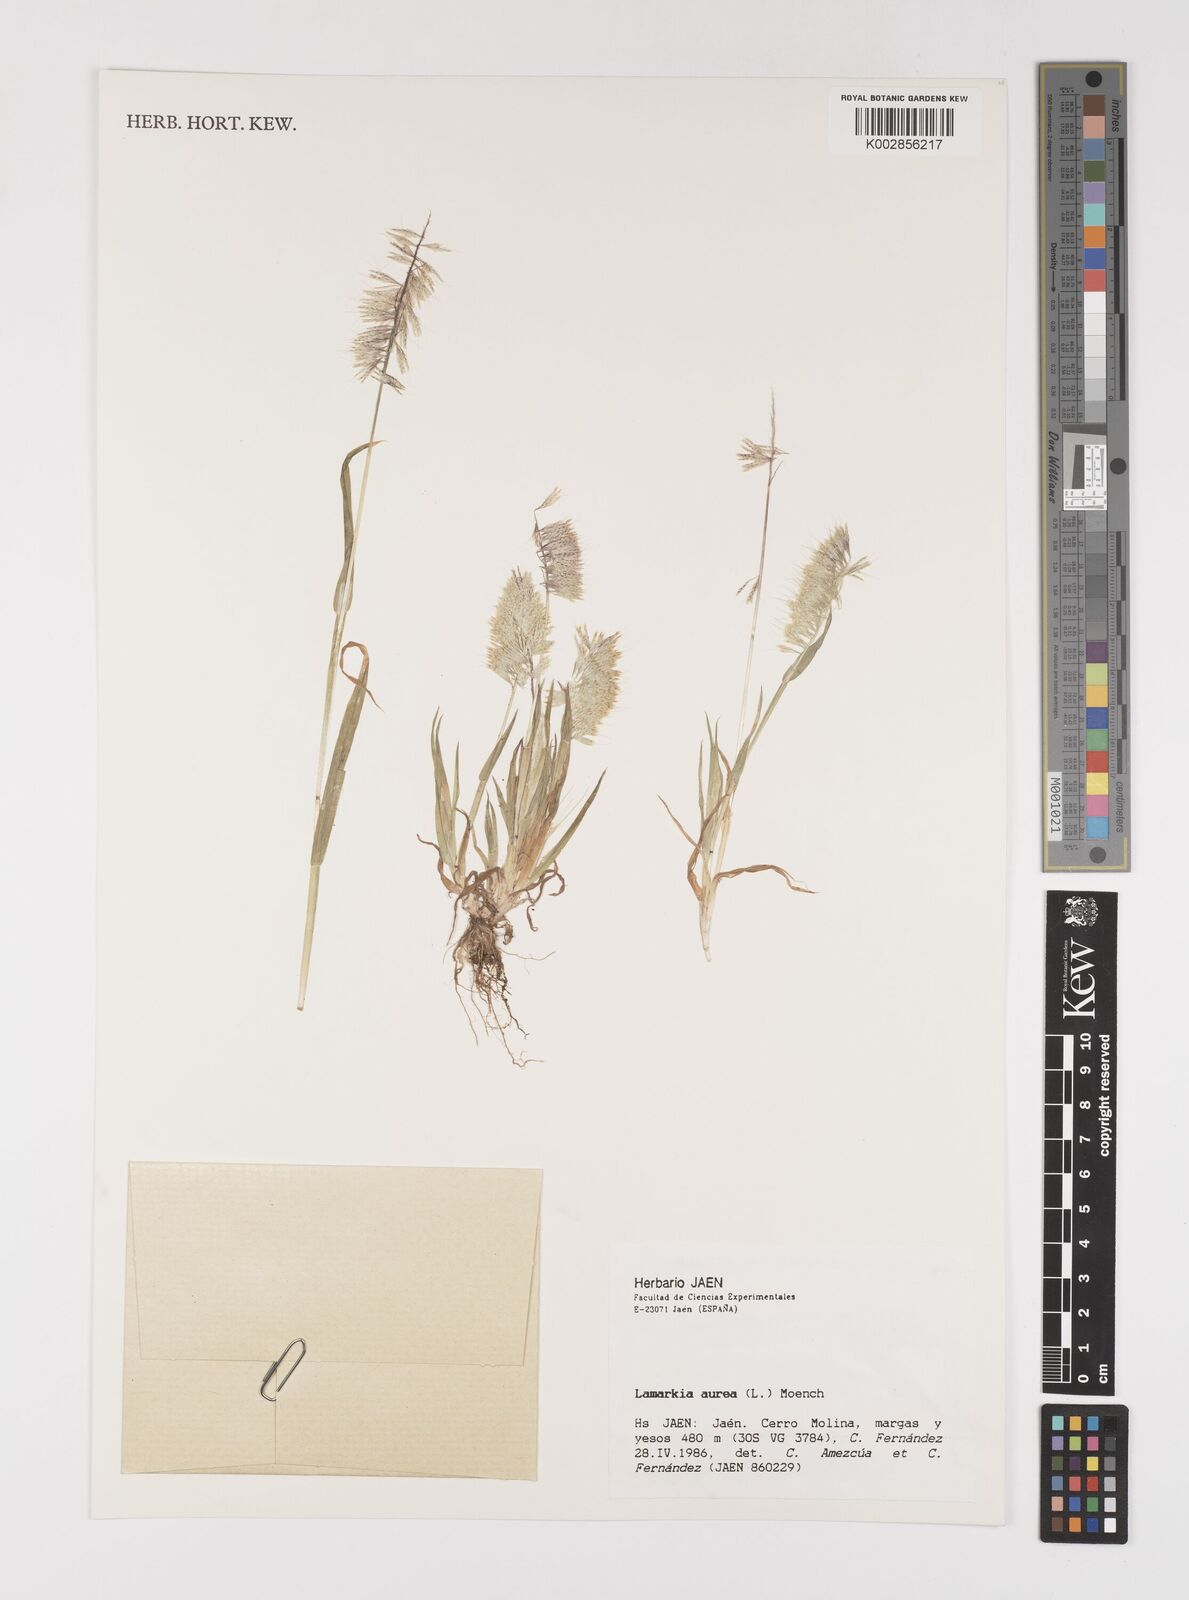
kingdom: Plantae
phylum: Tracheophyta
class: Liliopsida
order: Poales
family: Poaceae
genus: Lamarckia
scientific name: Lamarckia aurea
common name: Golden dog's-tail
